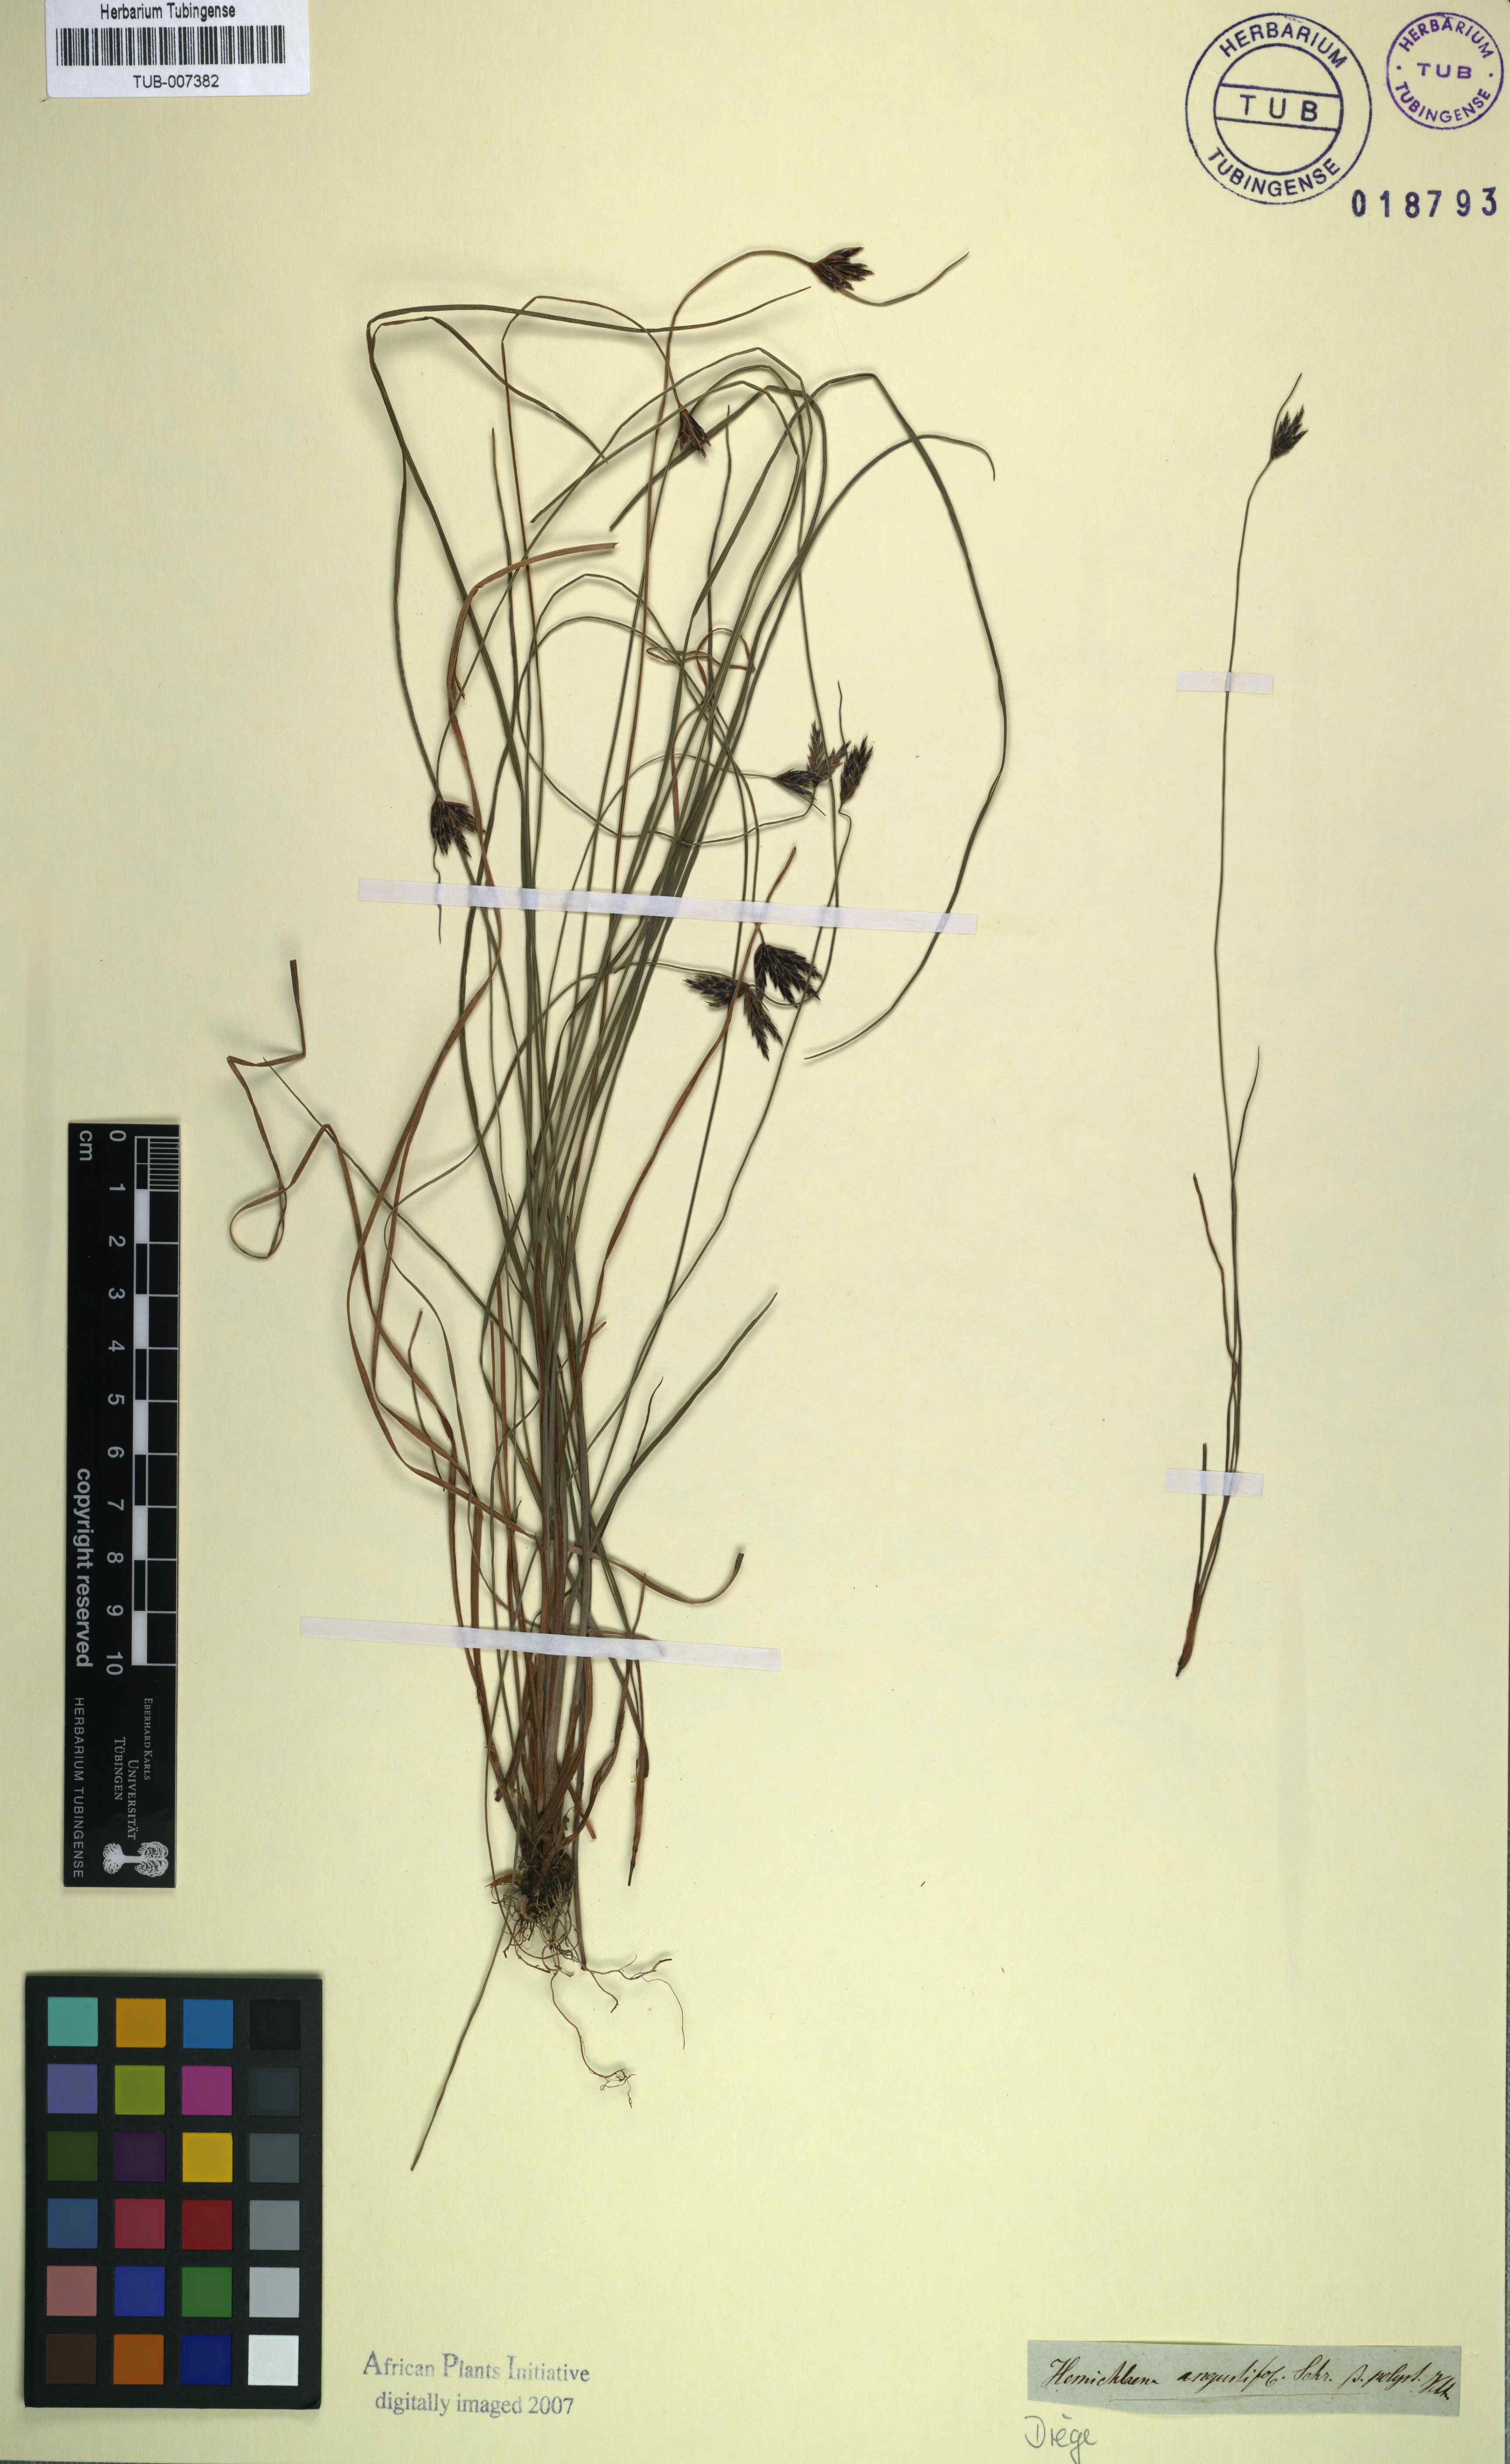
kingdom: Plantae
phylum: Tracheophyta
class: Liliopsida
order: Poales
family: Cyperaceae
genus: Ficinia
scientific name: Ficinia angustifolia
